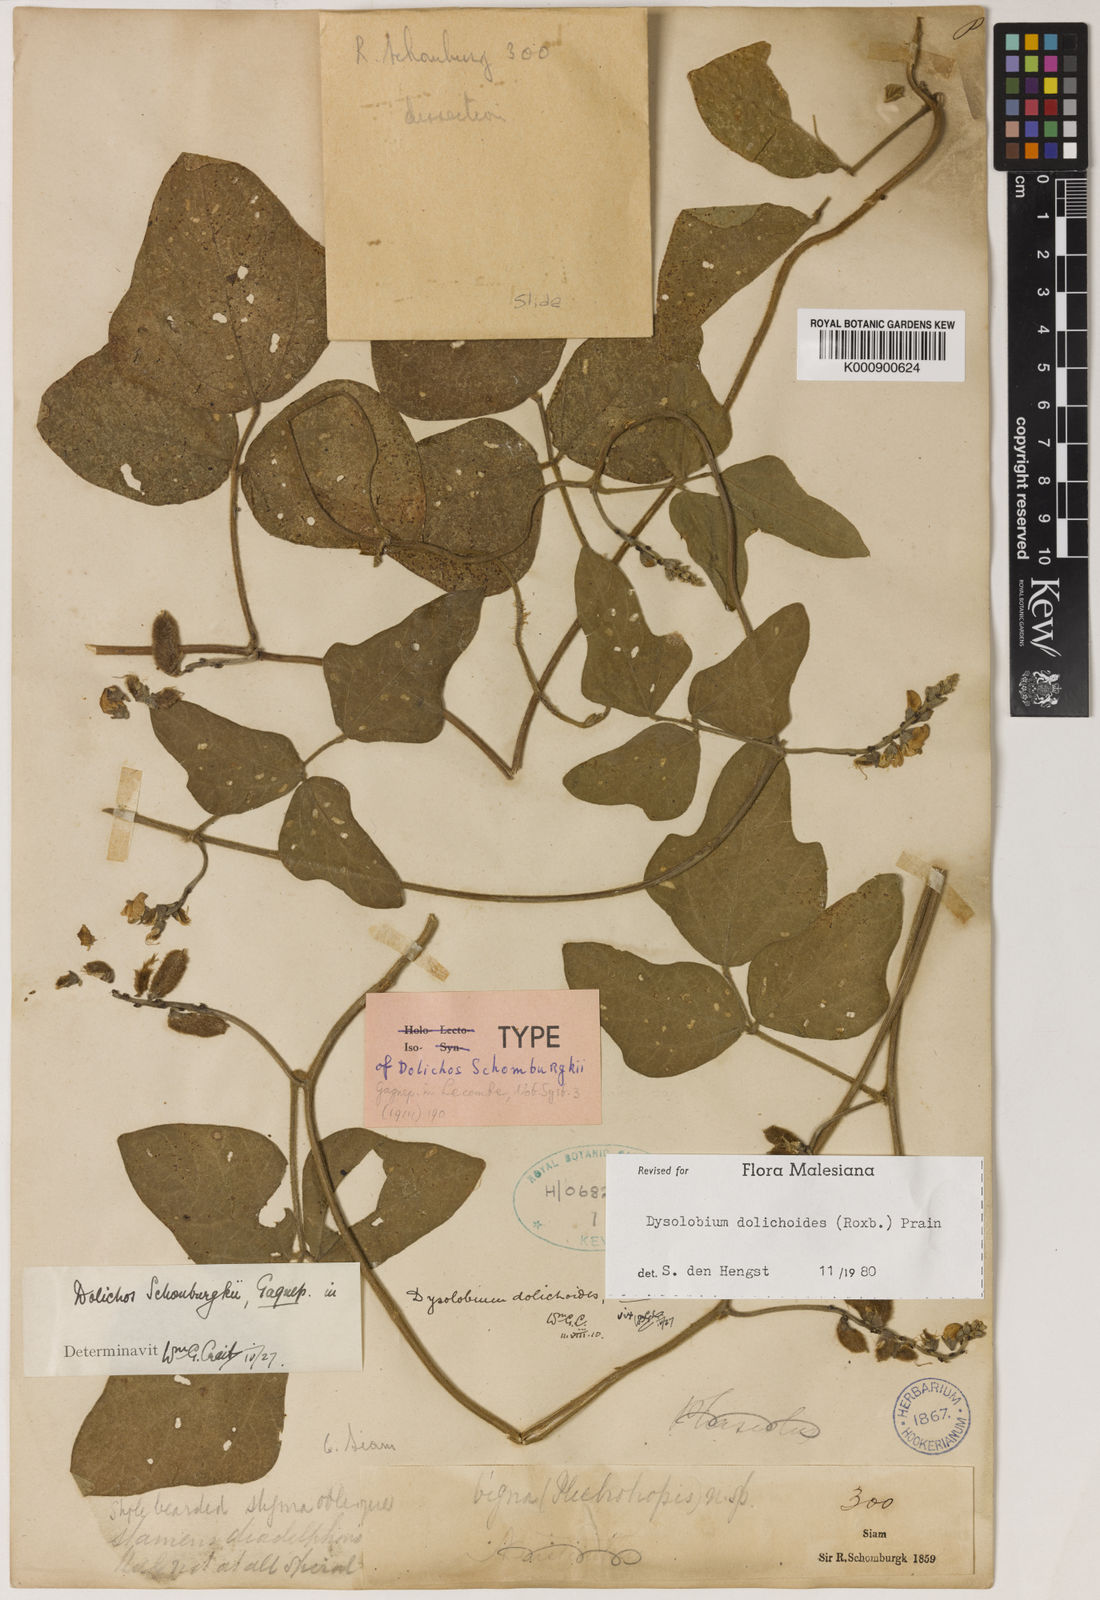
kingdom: Plantae
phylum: Tracheophyta
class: Magnoliopsida
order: Fabales
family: Fabaceae
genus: Dysolobium
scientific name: Dysolobium dolichoides
